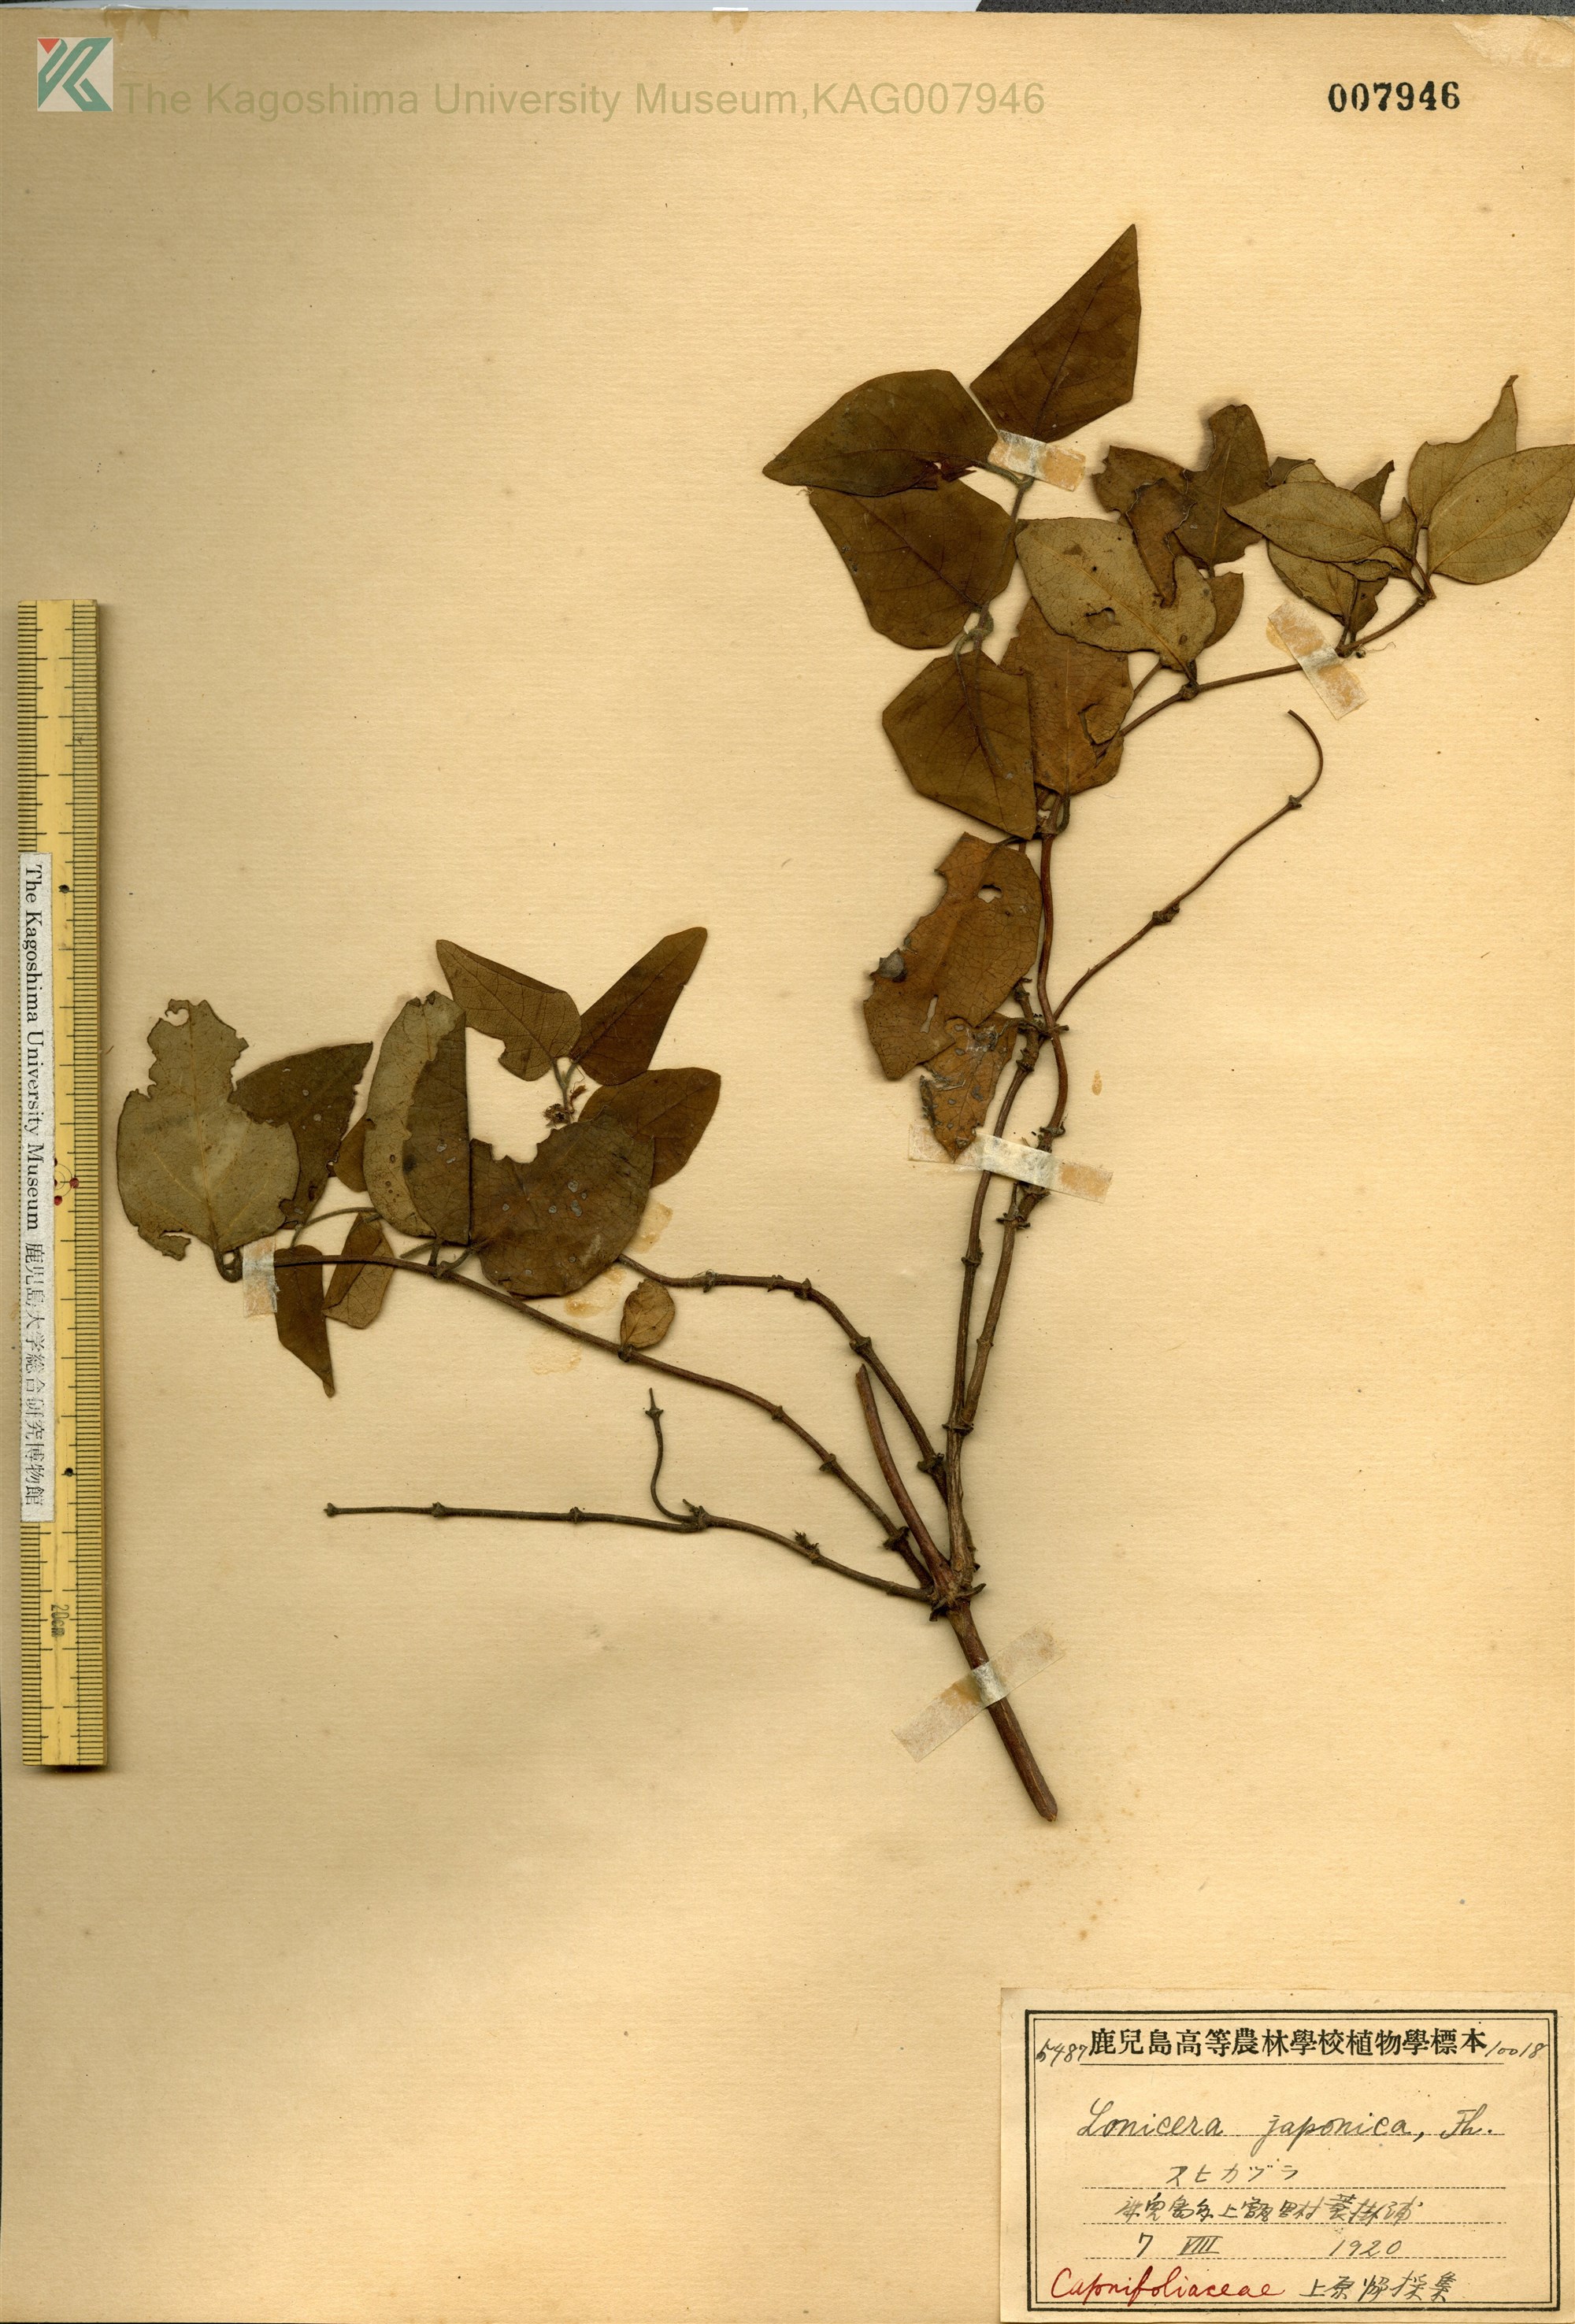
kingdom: Plantae
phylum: Tracheophyta
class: Magnoliopsida
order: Dipsacales
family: Caprifoliaceae
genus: Lonicera
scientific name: Lonicera affinis
